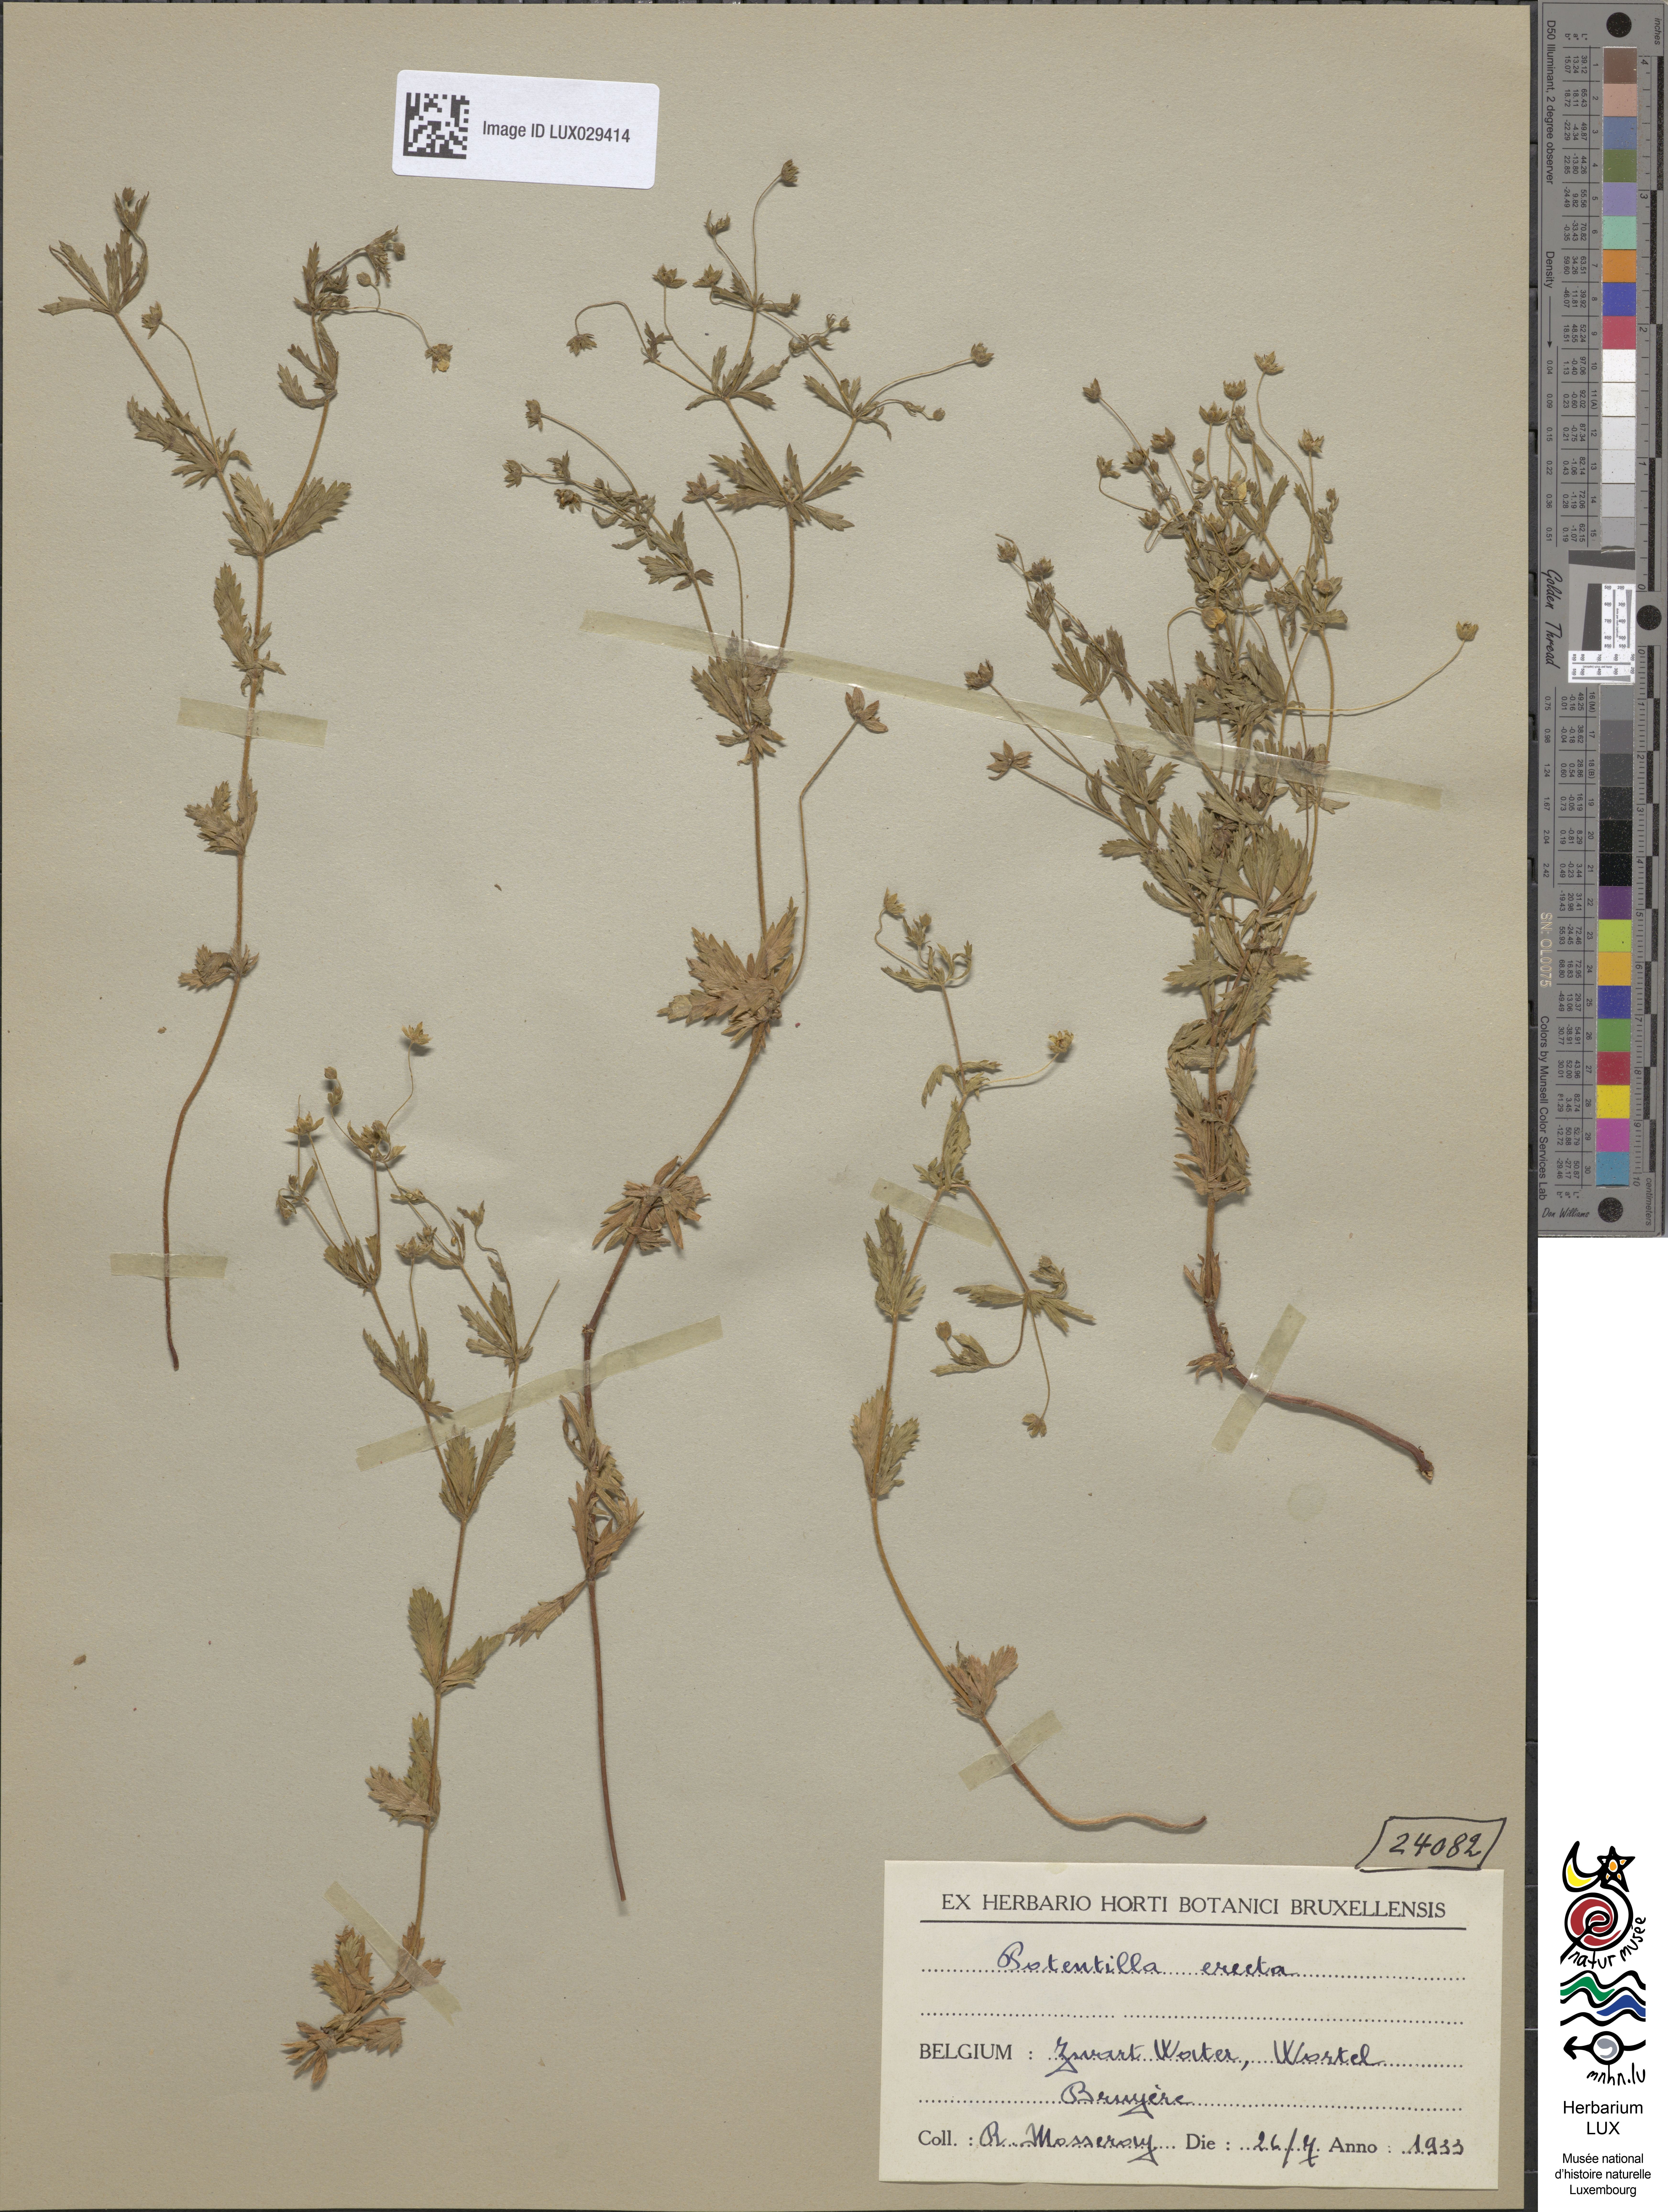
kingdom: Plantae
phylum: Tracheophyta
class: Magnoliopsida
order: Rosales
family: Rosaceae
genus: Potentilla
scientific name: Potentilla erecta
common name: Tormentil
